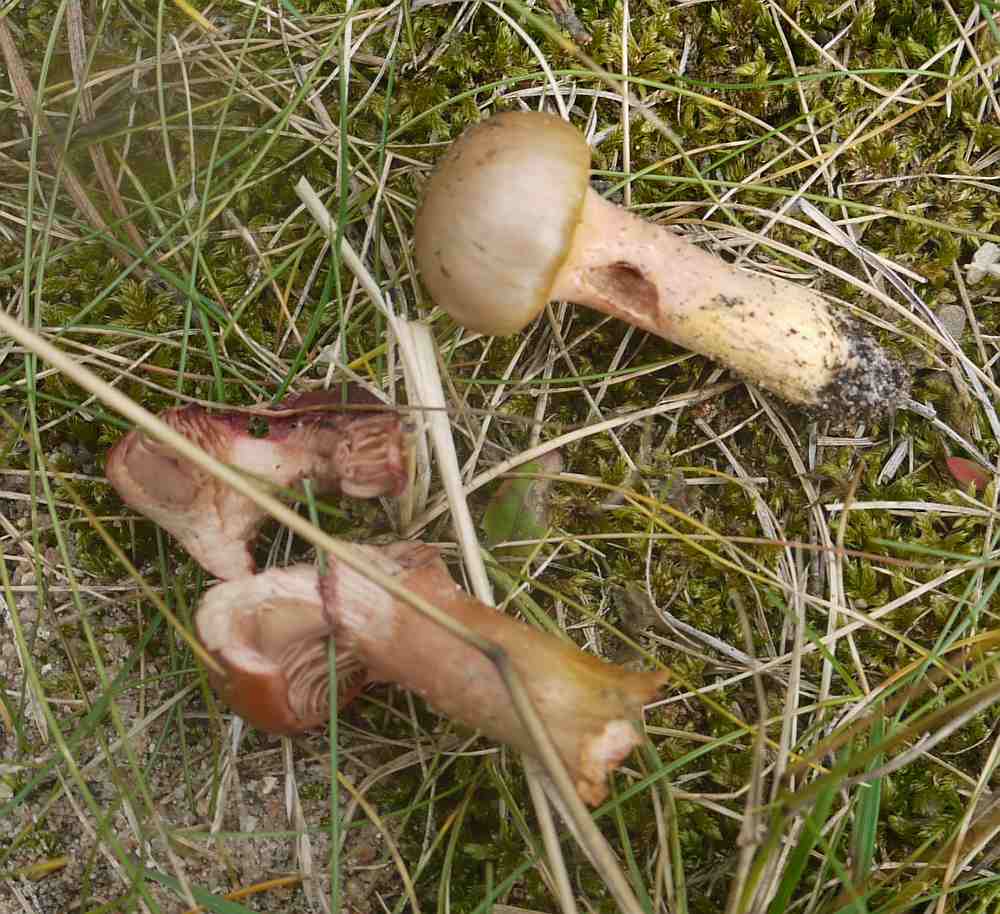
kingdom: Fungi
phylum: Basidiomycota
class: Agaricomycetes
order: Boletales
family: Gomphidiaceae
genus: Chroogomphus
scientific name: Chroogomphus rutilus
